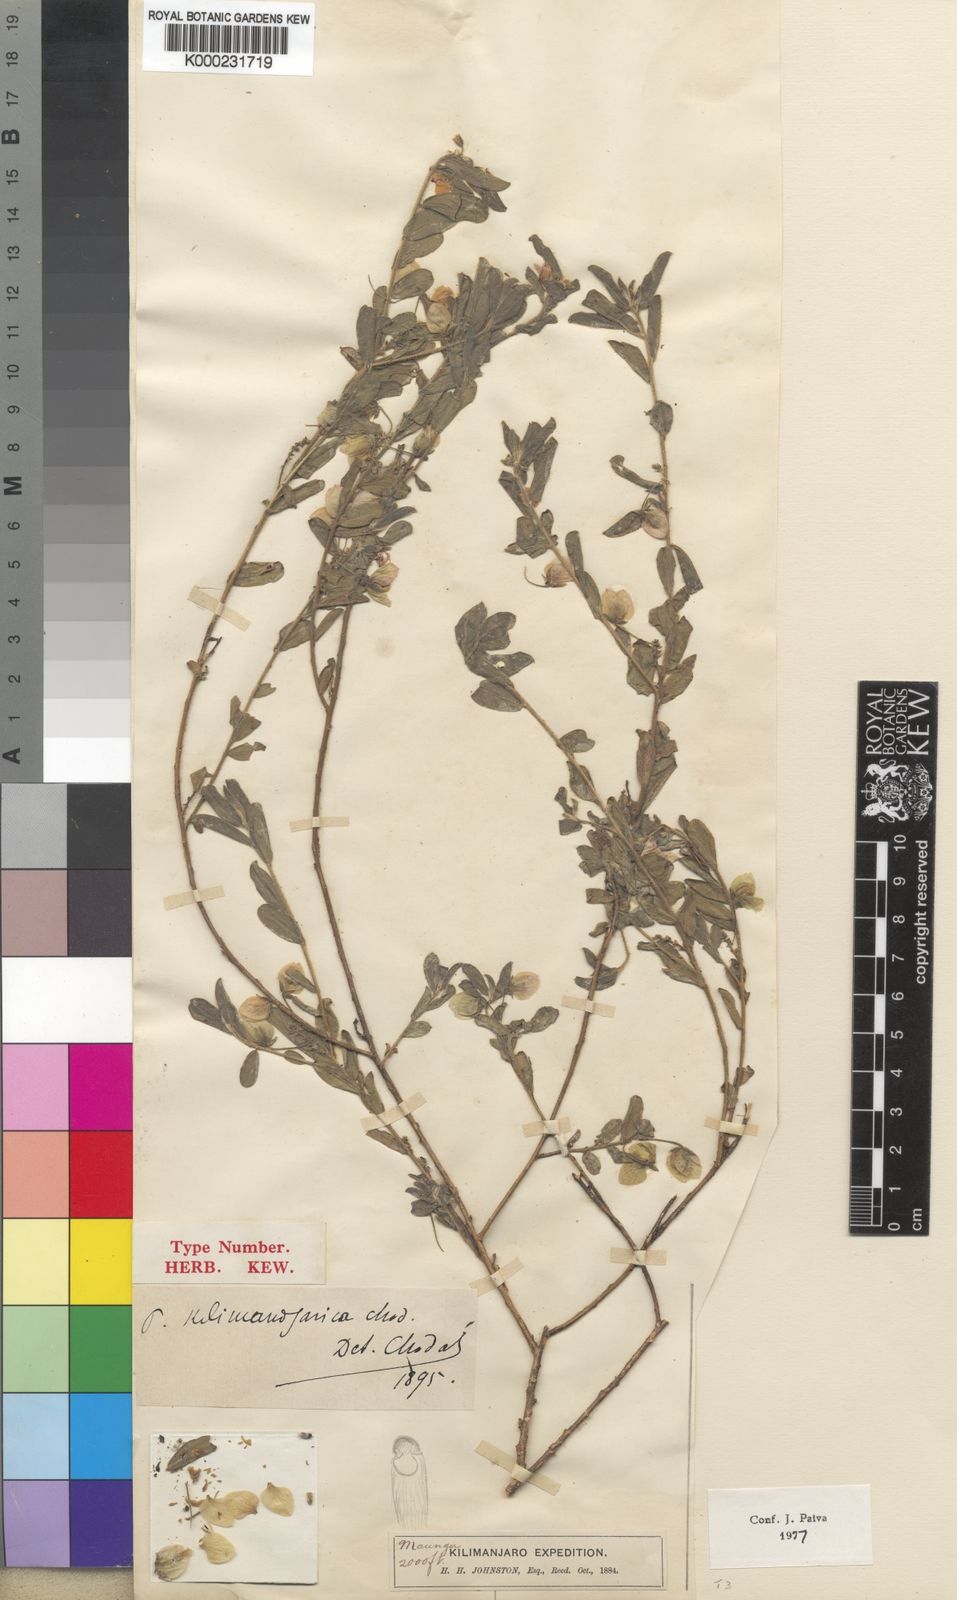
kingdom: Plantae
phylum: Tracheophyta
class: Magnoliopsida
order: Fabales
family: Polygalaceae
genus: Polygala
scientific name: Polygala kilimandjarica
